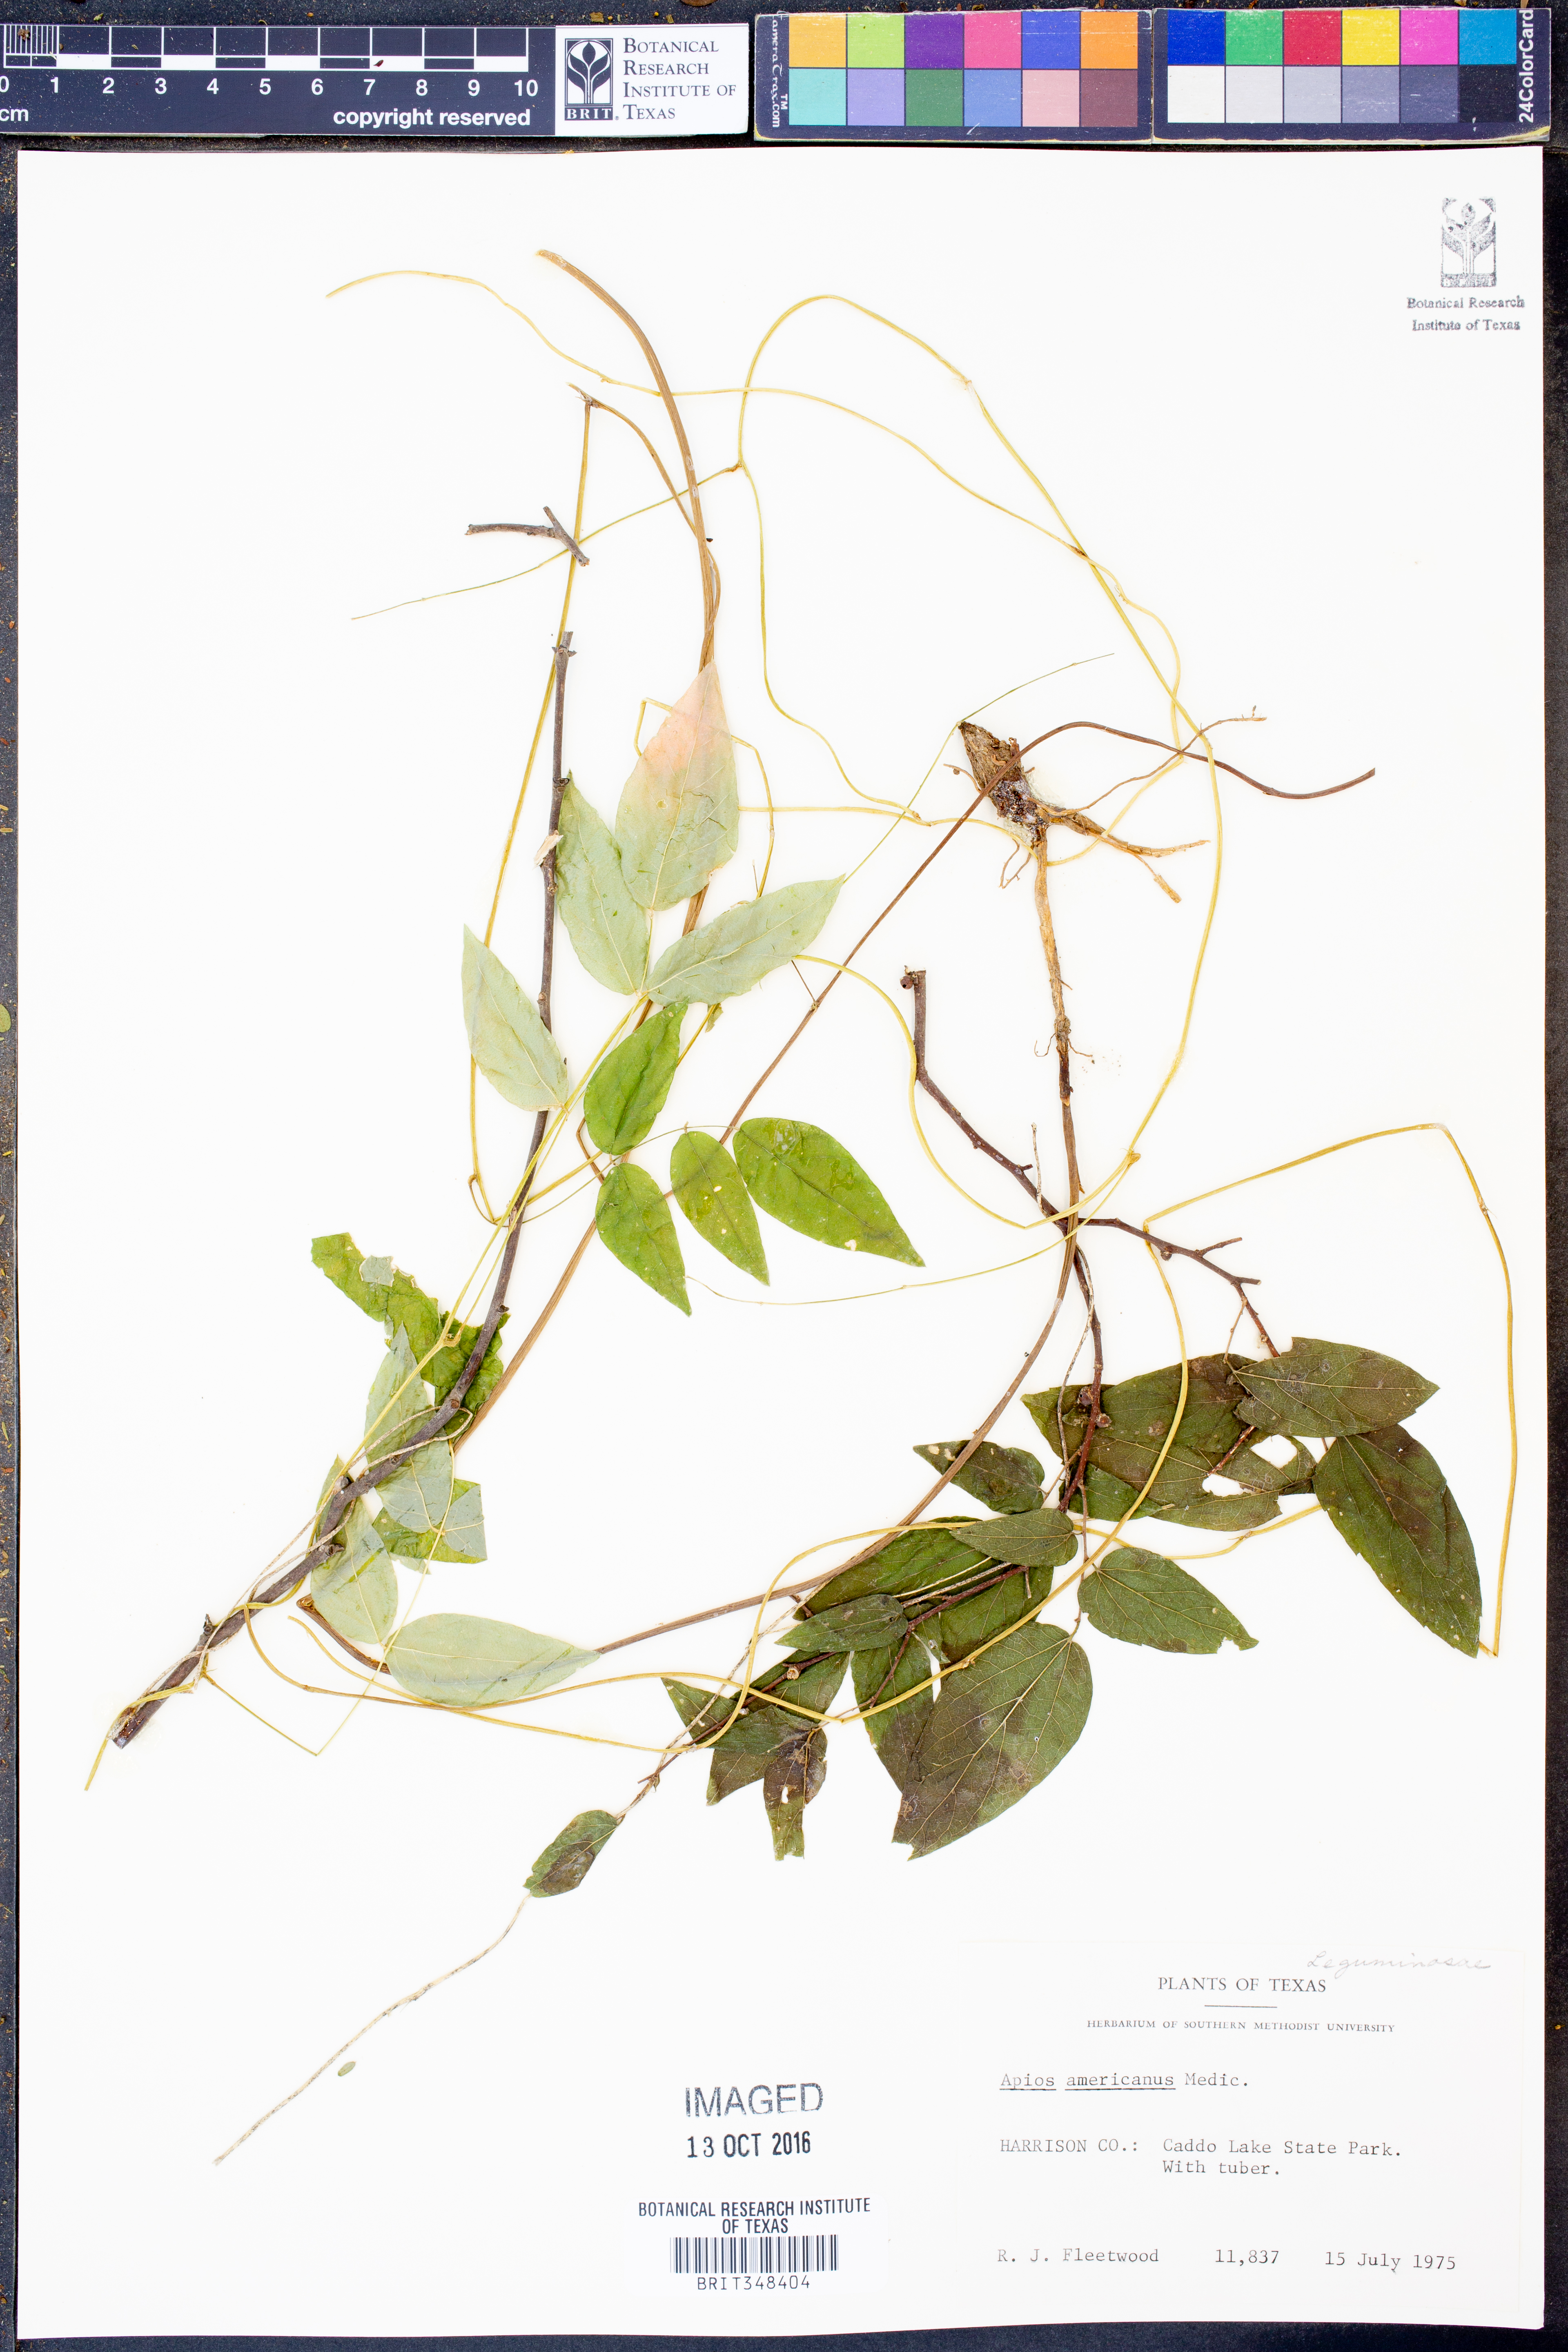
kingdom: Plantae
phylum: Tracheophyta
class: Magnoliopsida
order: Fabales
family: Fabaceae
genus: Apios
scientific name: Apios americana
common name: American potato-bean
